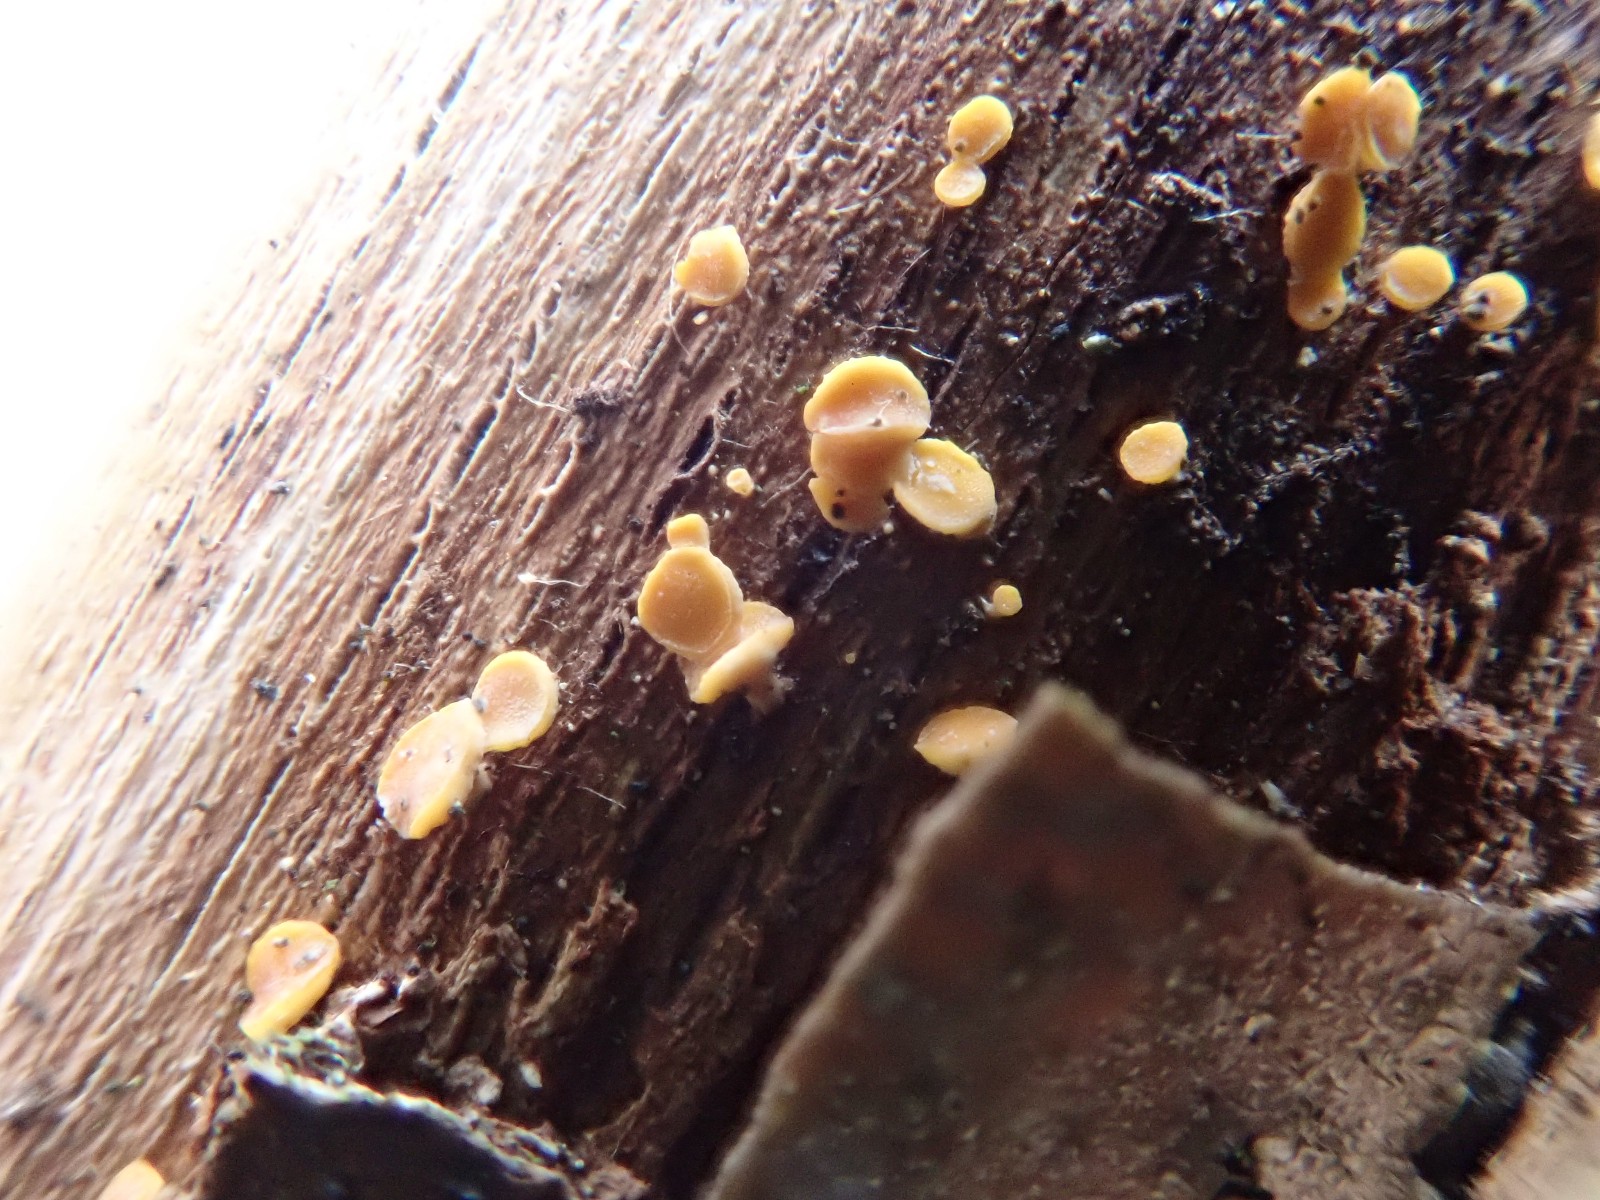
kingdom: Fungi
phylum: Ascomycota
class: Leotiomycetes
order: Helotiales
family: Helotiaceae
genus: Hymenoscyphus
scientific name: Hymenoscyphus
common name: stilkskive
